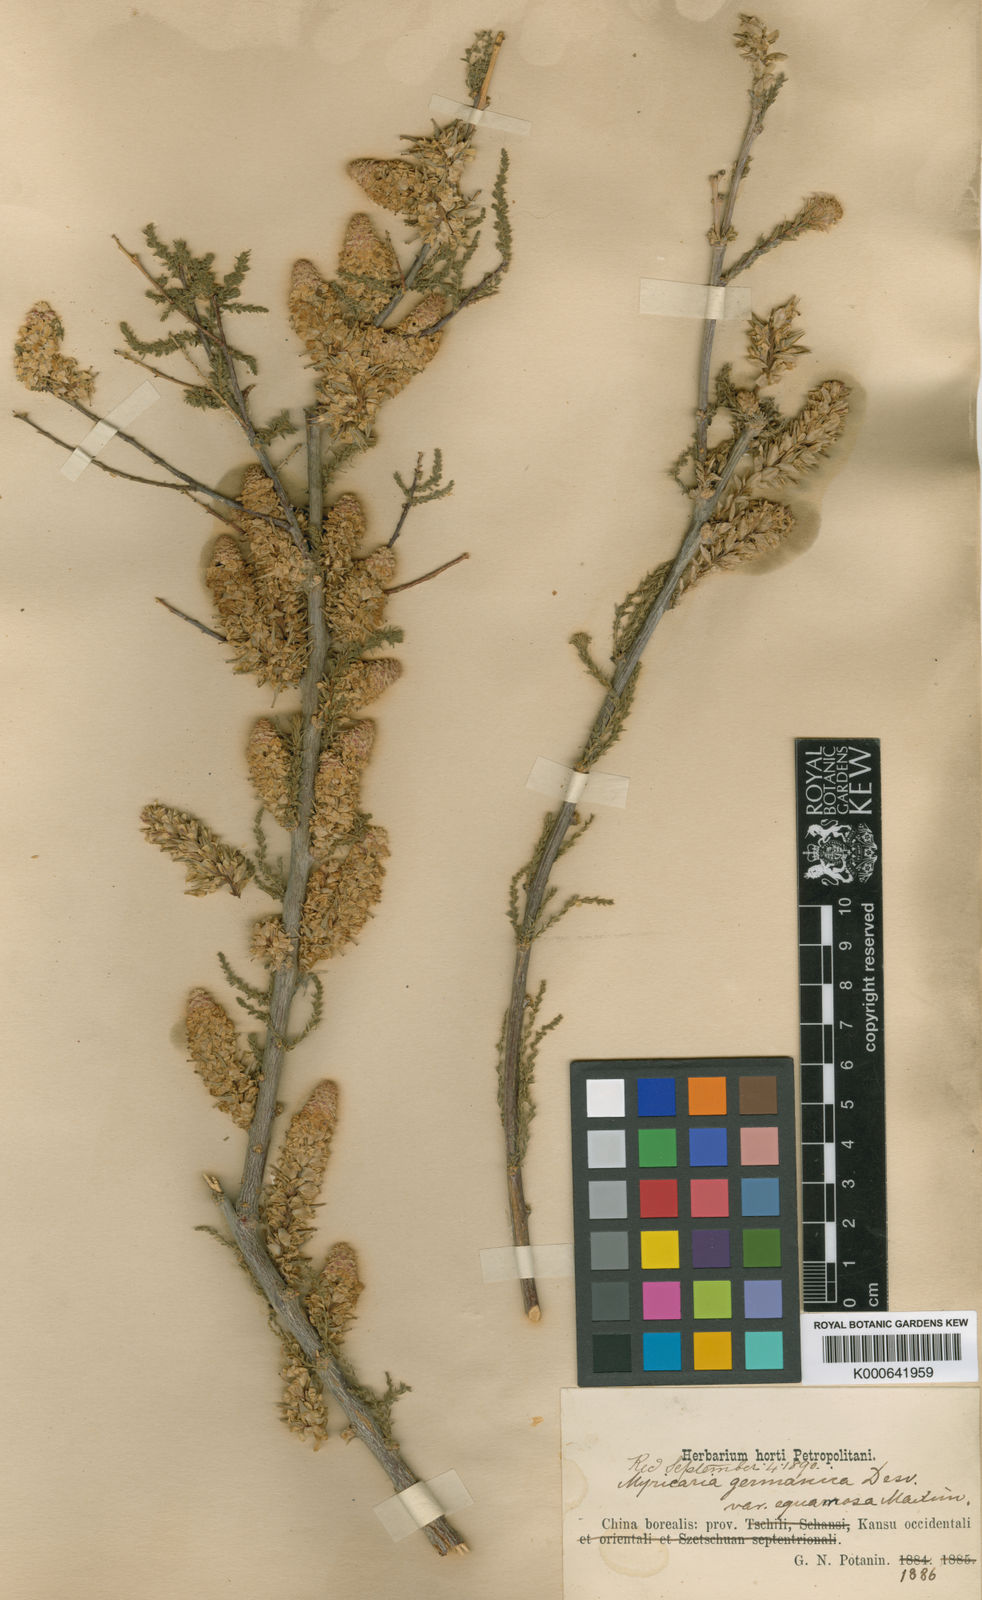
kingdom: Plantae
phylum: Tracheophyta
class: Magnoliopsida
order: Caryophyllales
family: Tamaricaceae
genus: Myricaria
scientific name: Myricaria germanica
